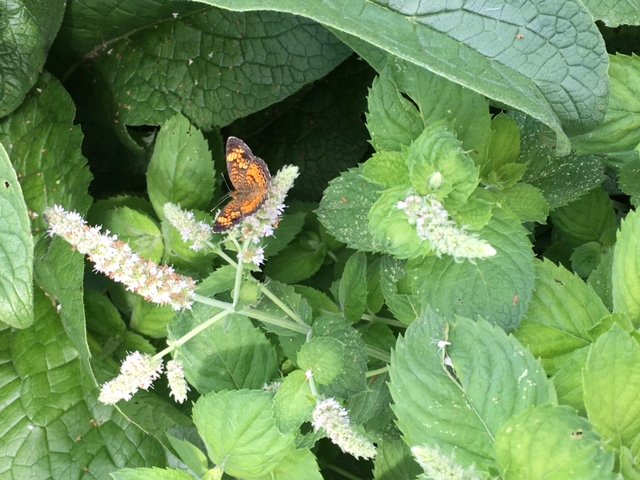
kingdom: Animalia
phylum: Arthropoda
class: Insecta
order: Lepidoptera
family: Nymphalidae
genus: Phyciodes
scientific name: Phyciodes
